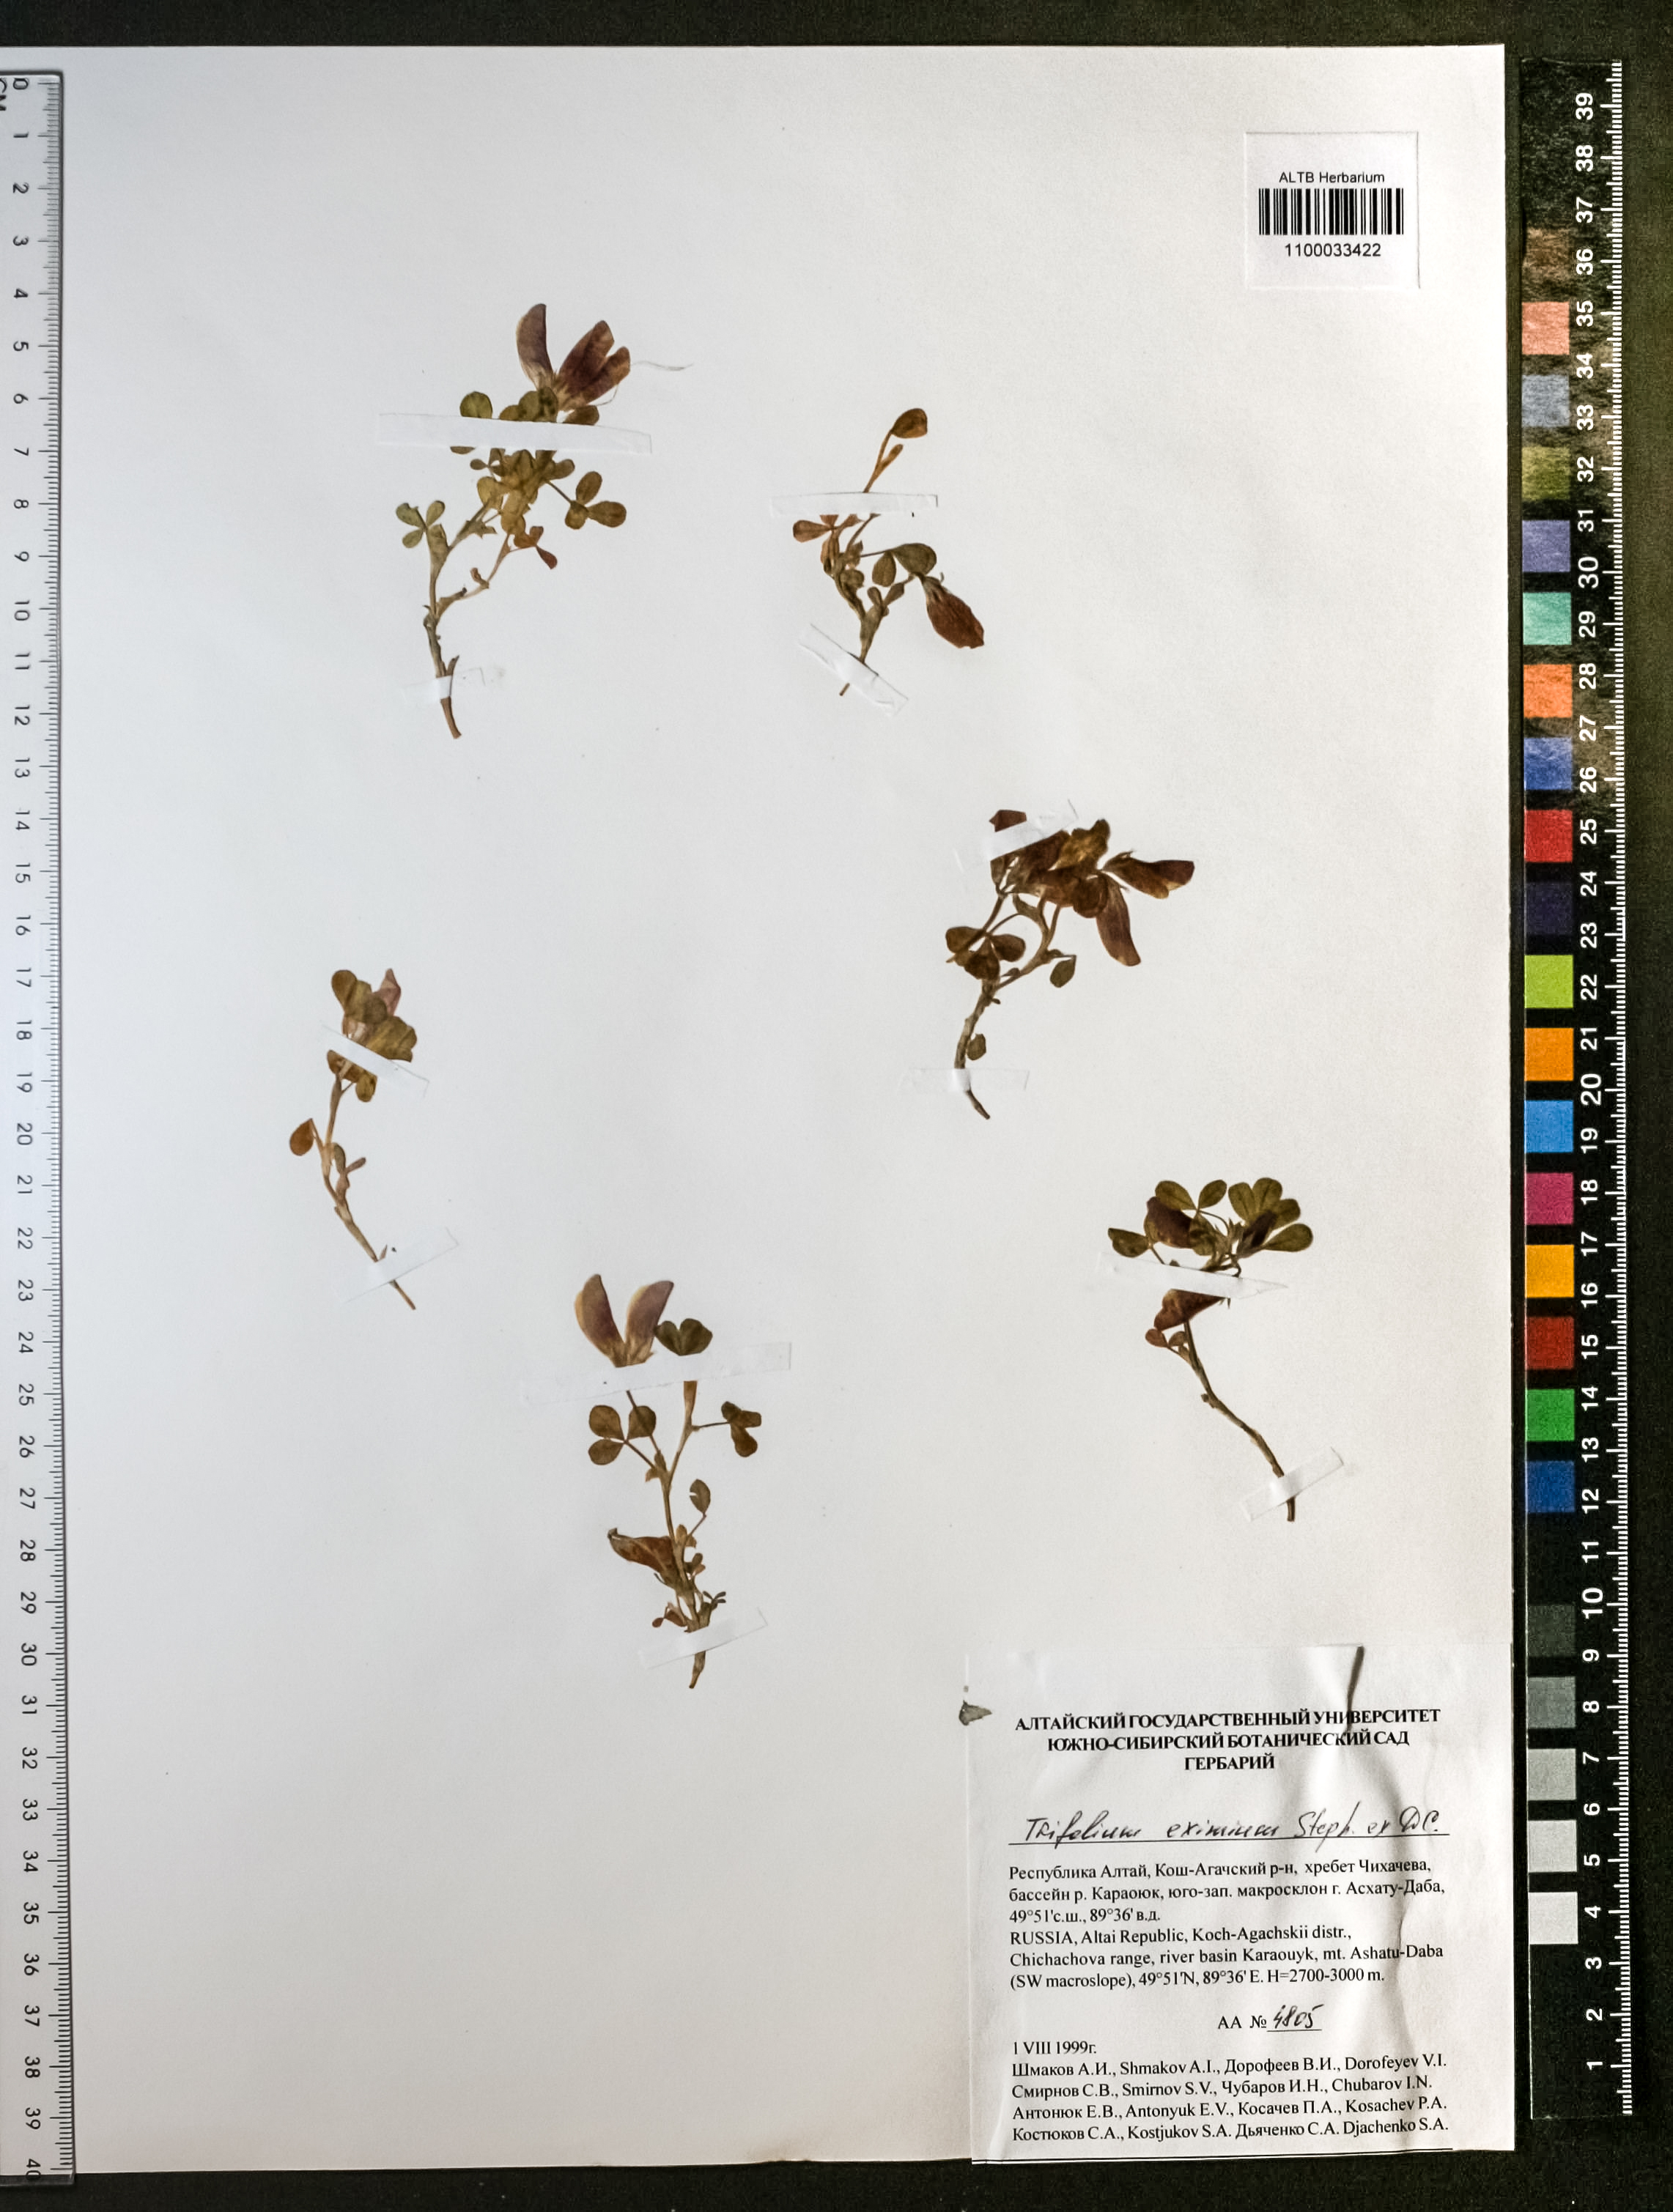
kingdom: Plantae
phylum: Tracheophyta
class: Magnoliopsida
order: Fabales
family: Fabaceae
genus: Trifolium
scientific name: Trifolium eximium
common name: Excellent clover
